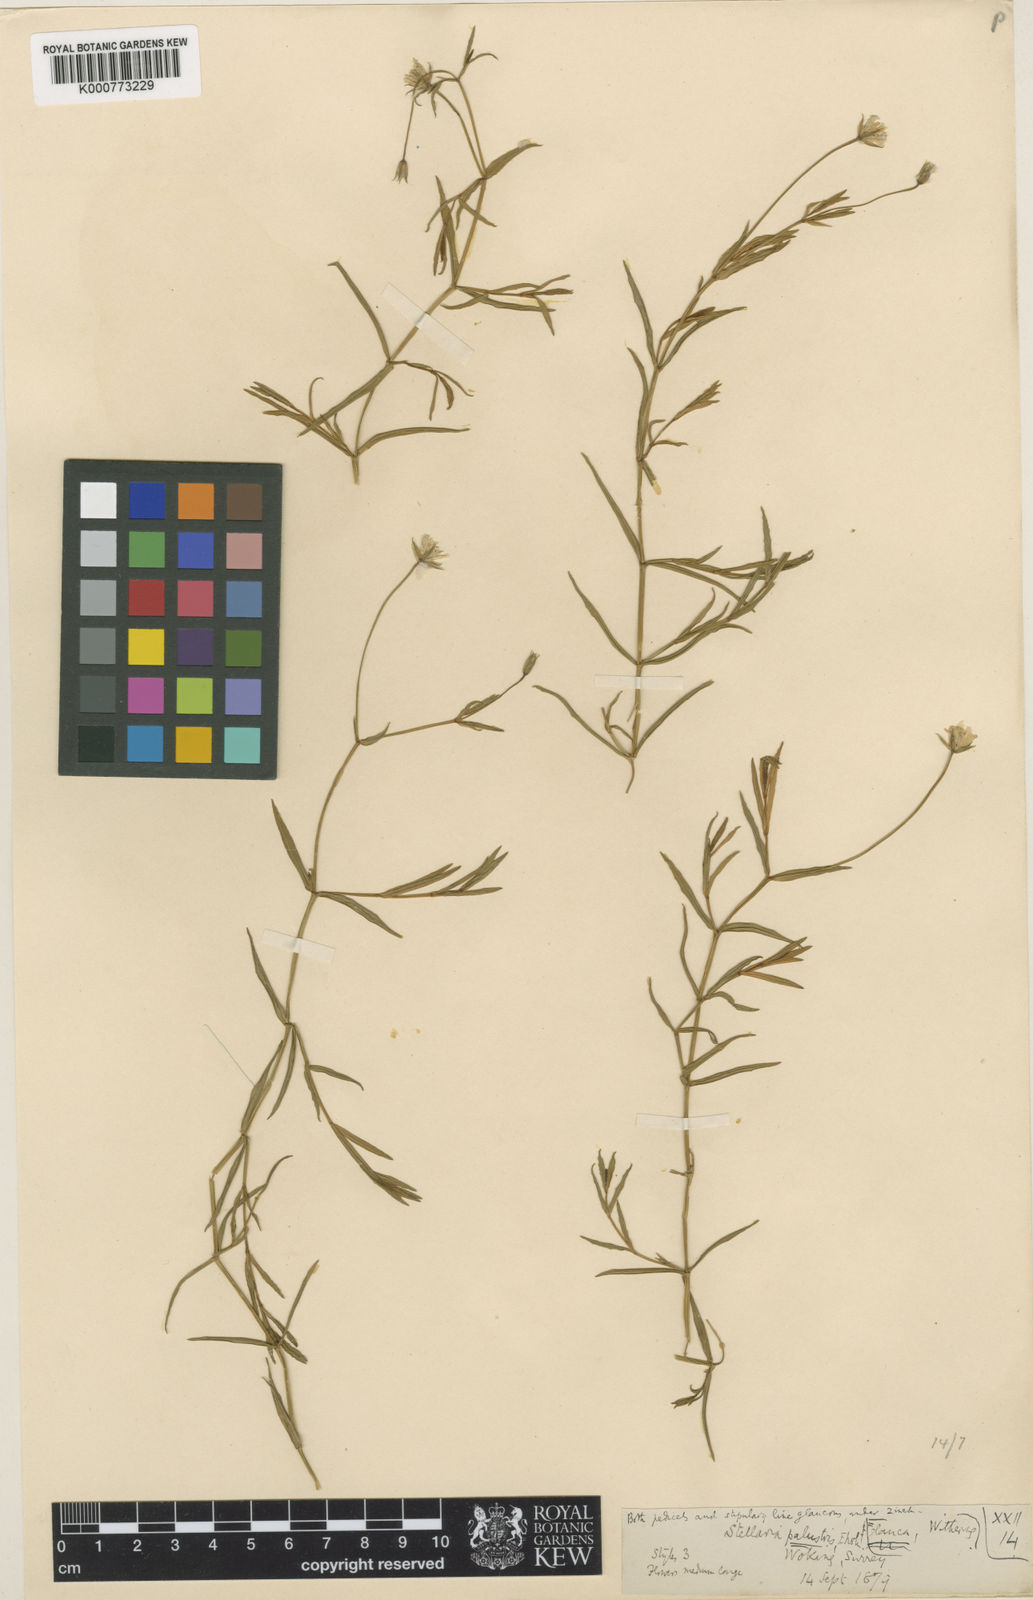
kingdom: Plantae
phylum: Tracheophyta
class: Magnoliopsida
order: Caryophyllales
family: Caryophyllaceae
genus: Stellaria
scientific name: Stellaria
